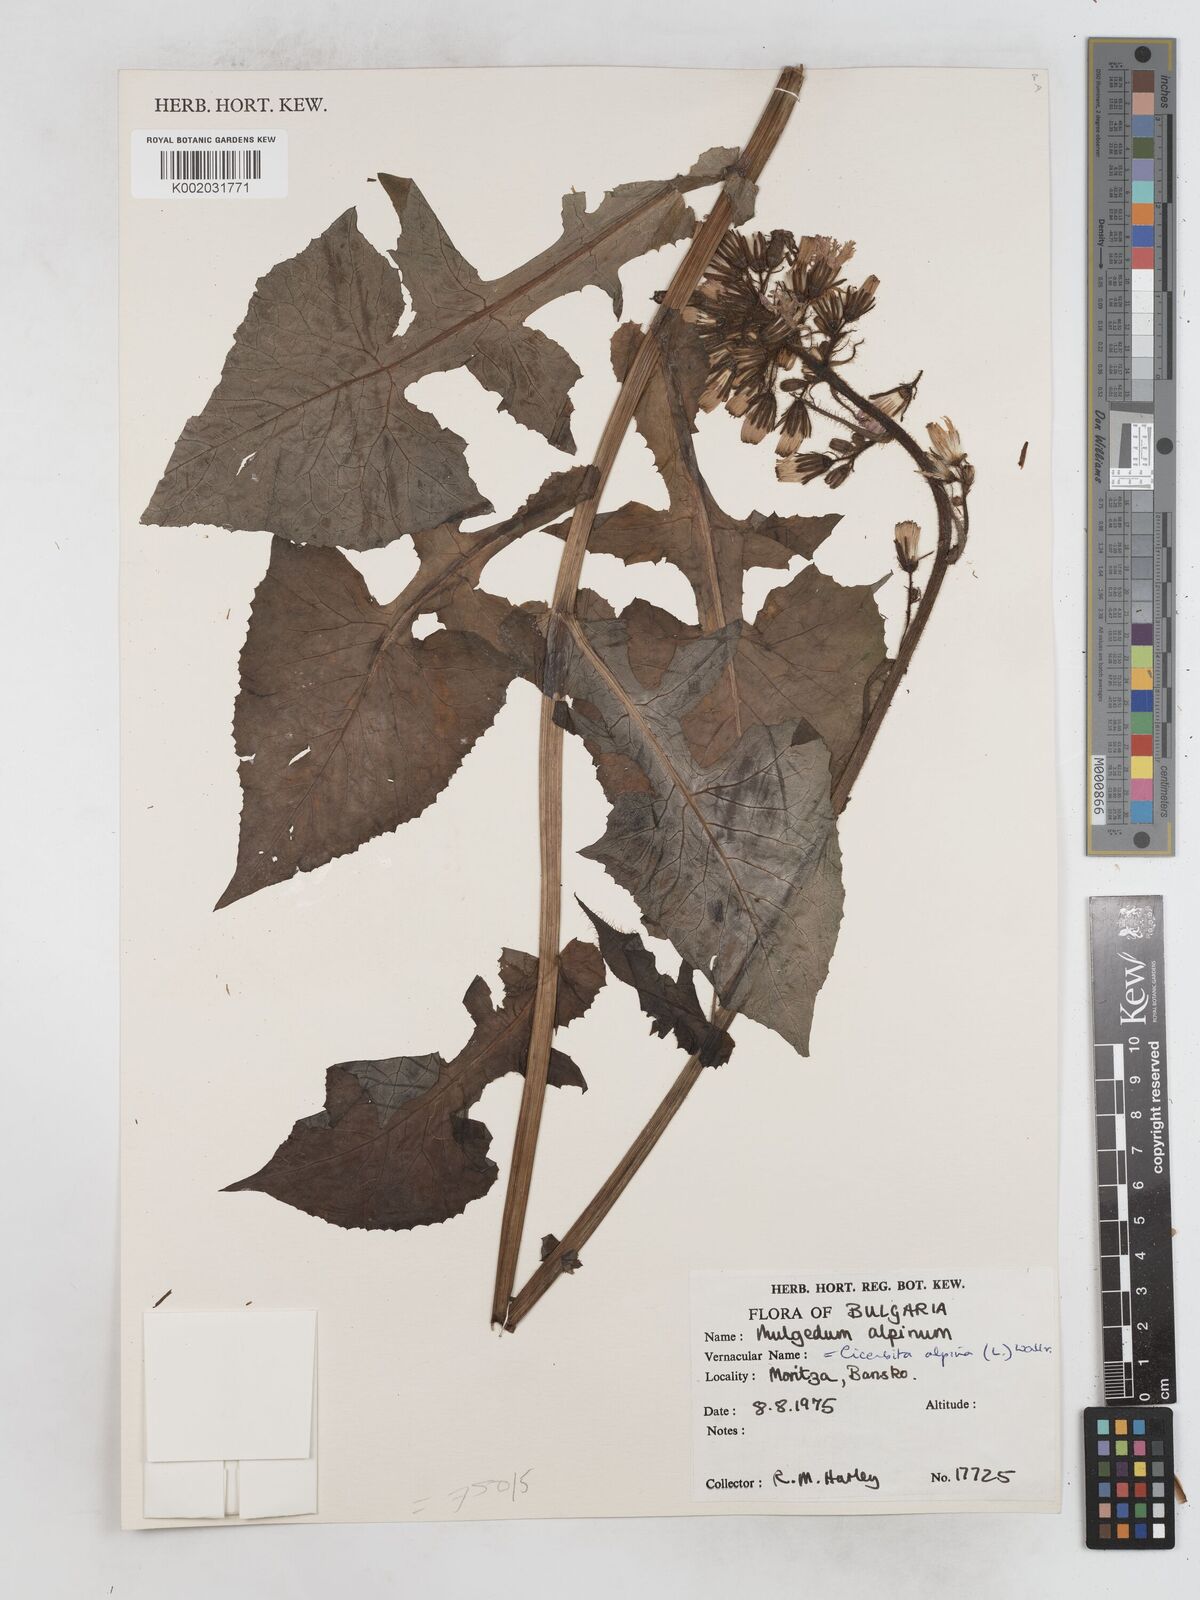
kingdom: Plantae
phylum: Tracheophyta
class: Magnoliopsida
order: Asterales
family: Asteraceae
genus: Cicerbita
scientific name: Cicerbita alpina
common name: Alpine blue-sow-thistle
